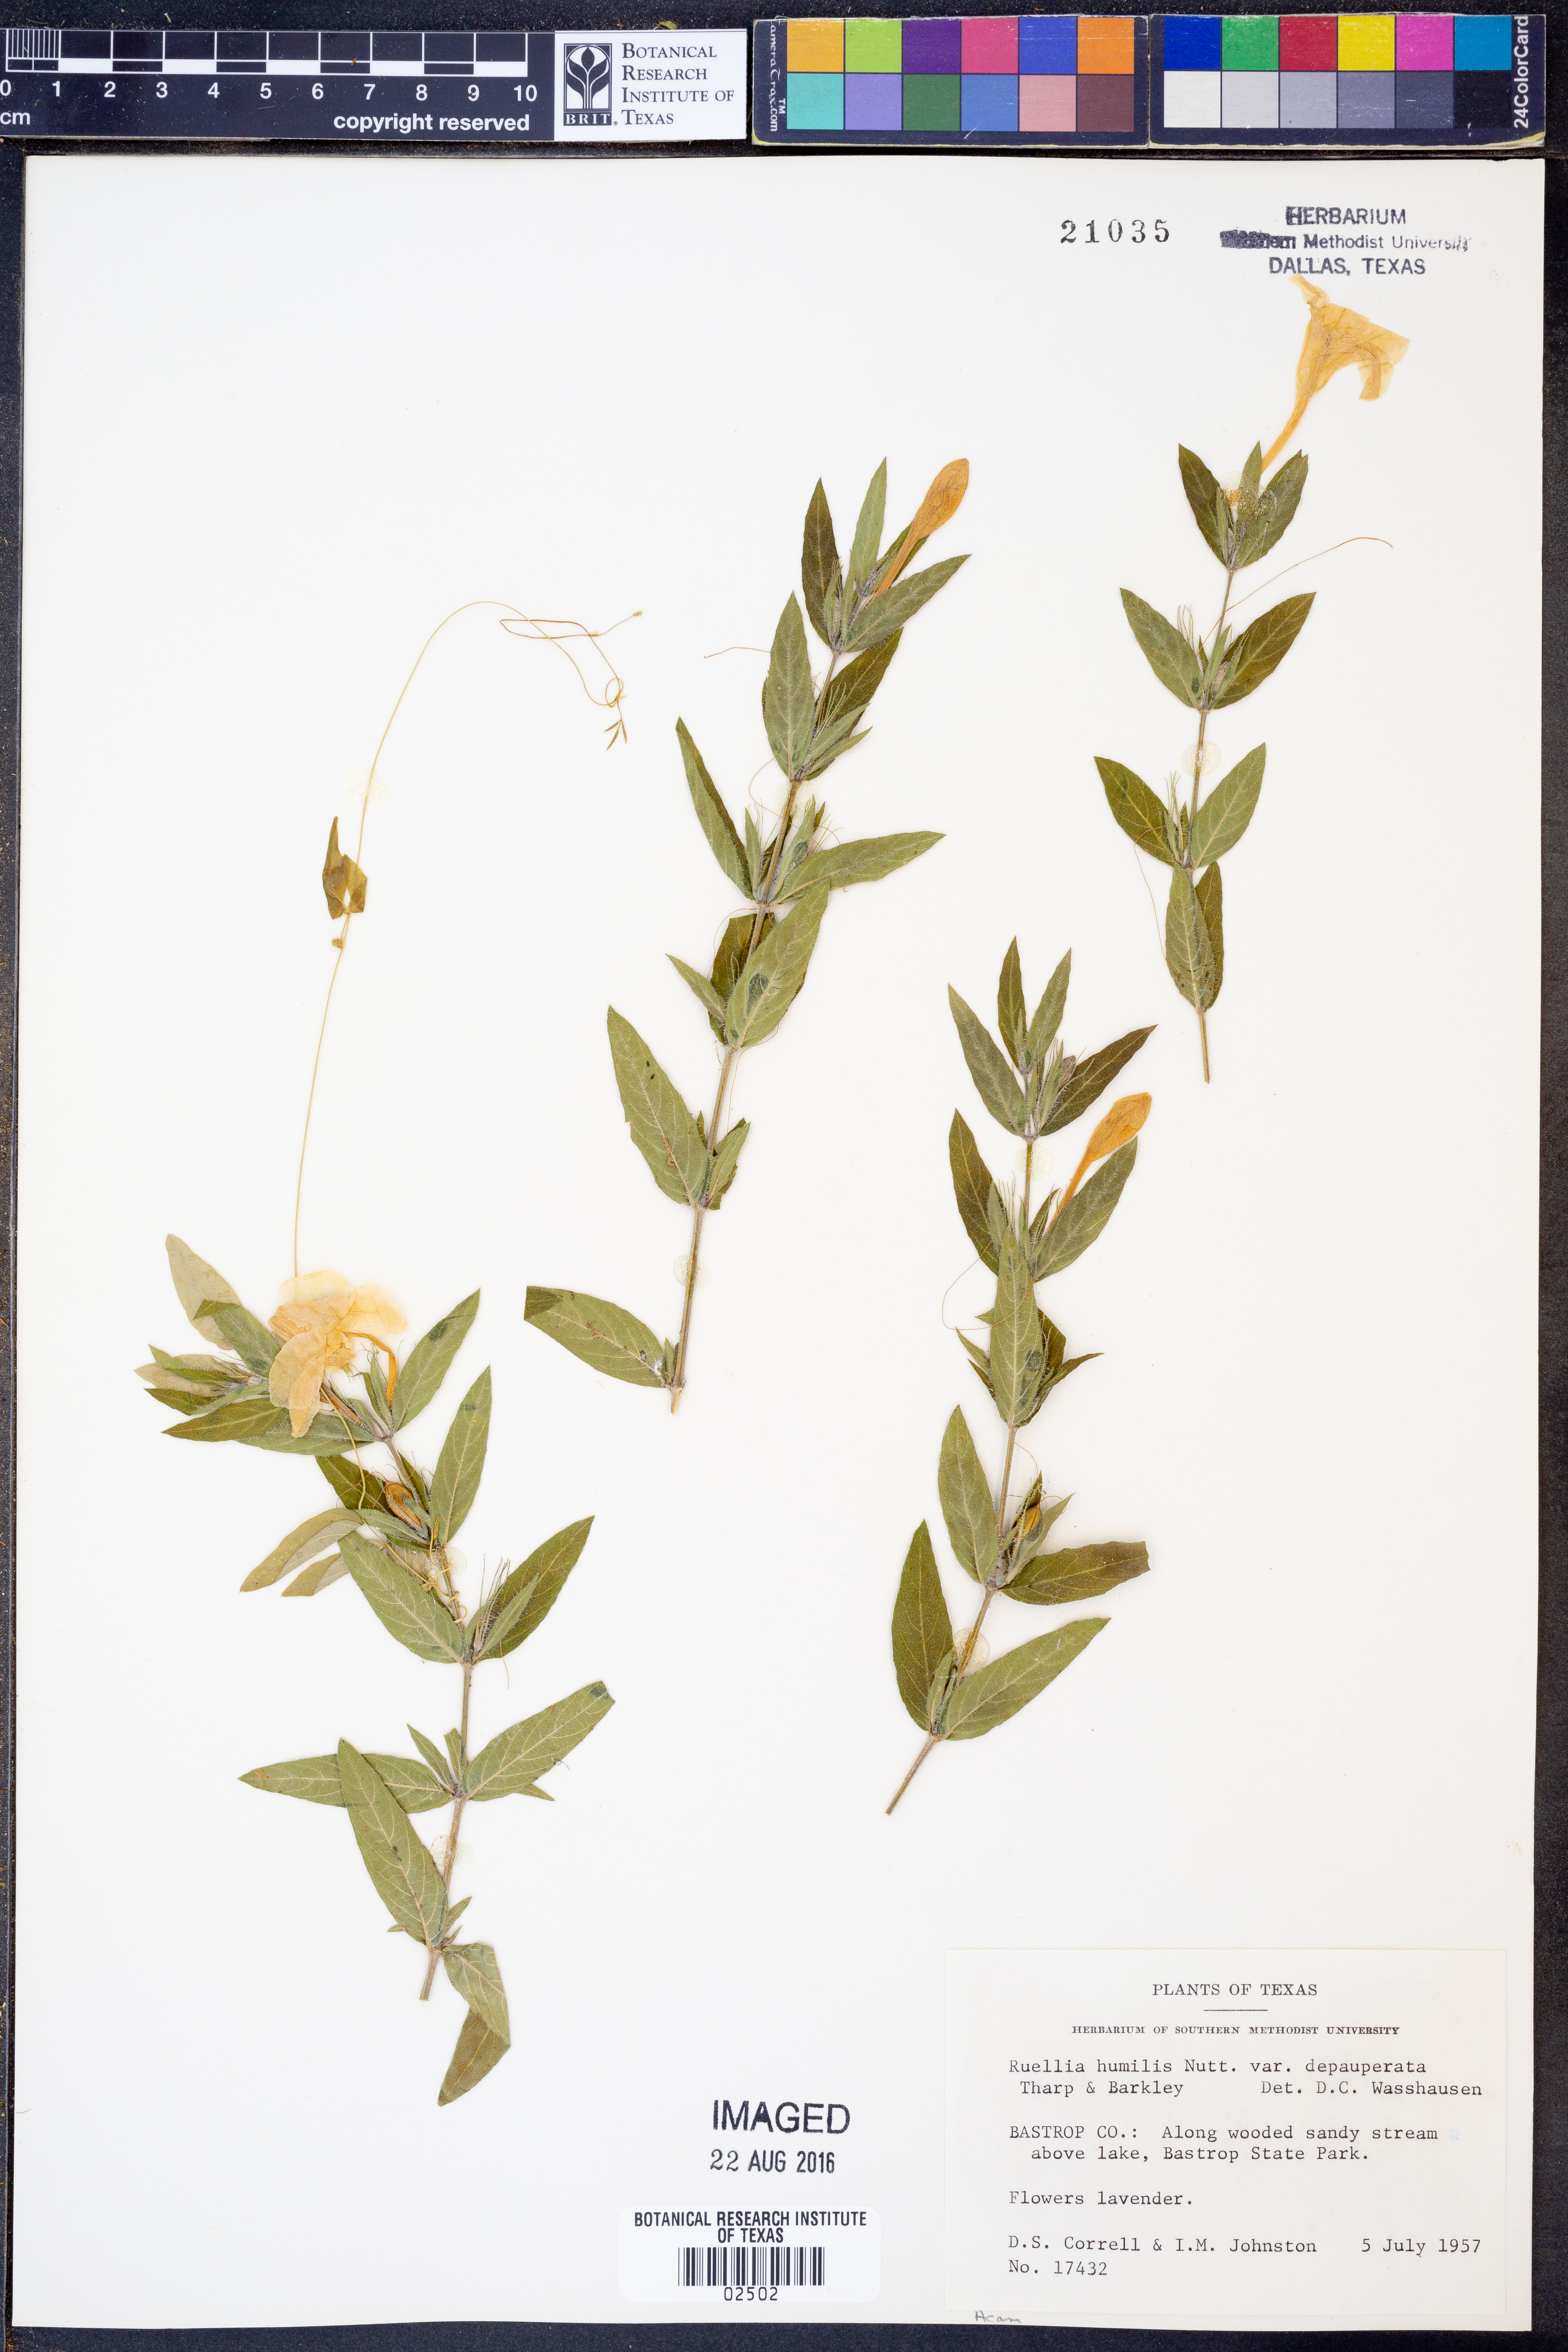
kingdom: Plantae
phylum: Tracheophyta
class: Magnoliopsida
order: Lamiales
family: Acanthaceae
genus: Ruellia
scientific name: Ruellia humilis
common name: Fringe-leaf ruellia
